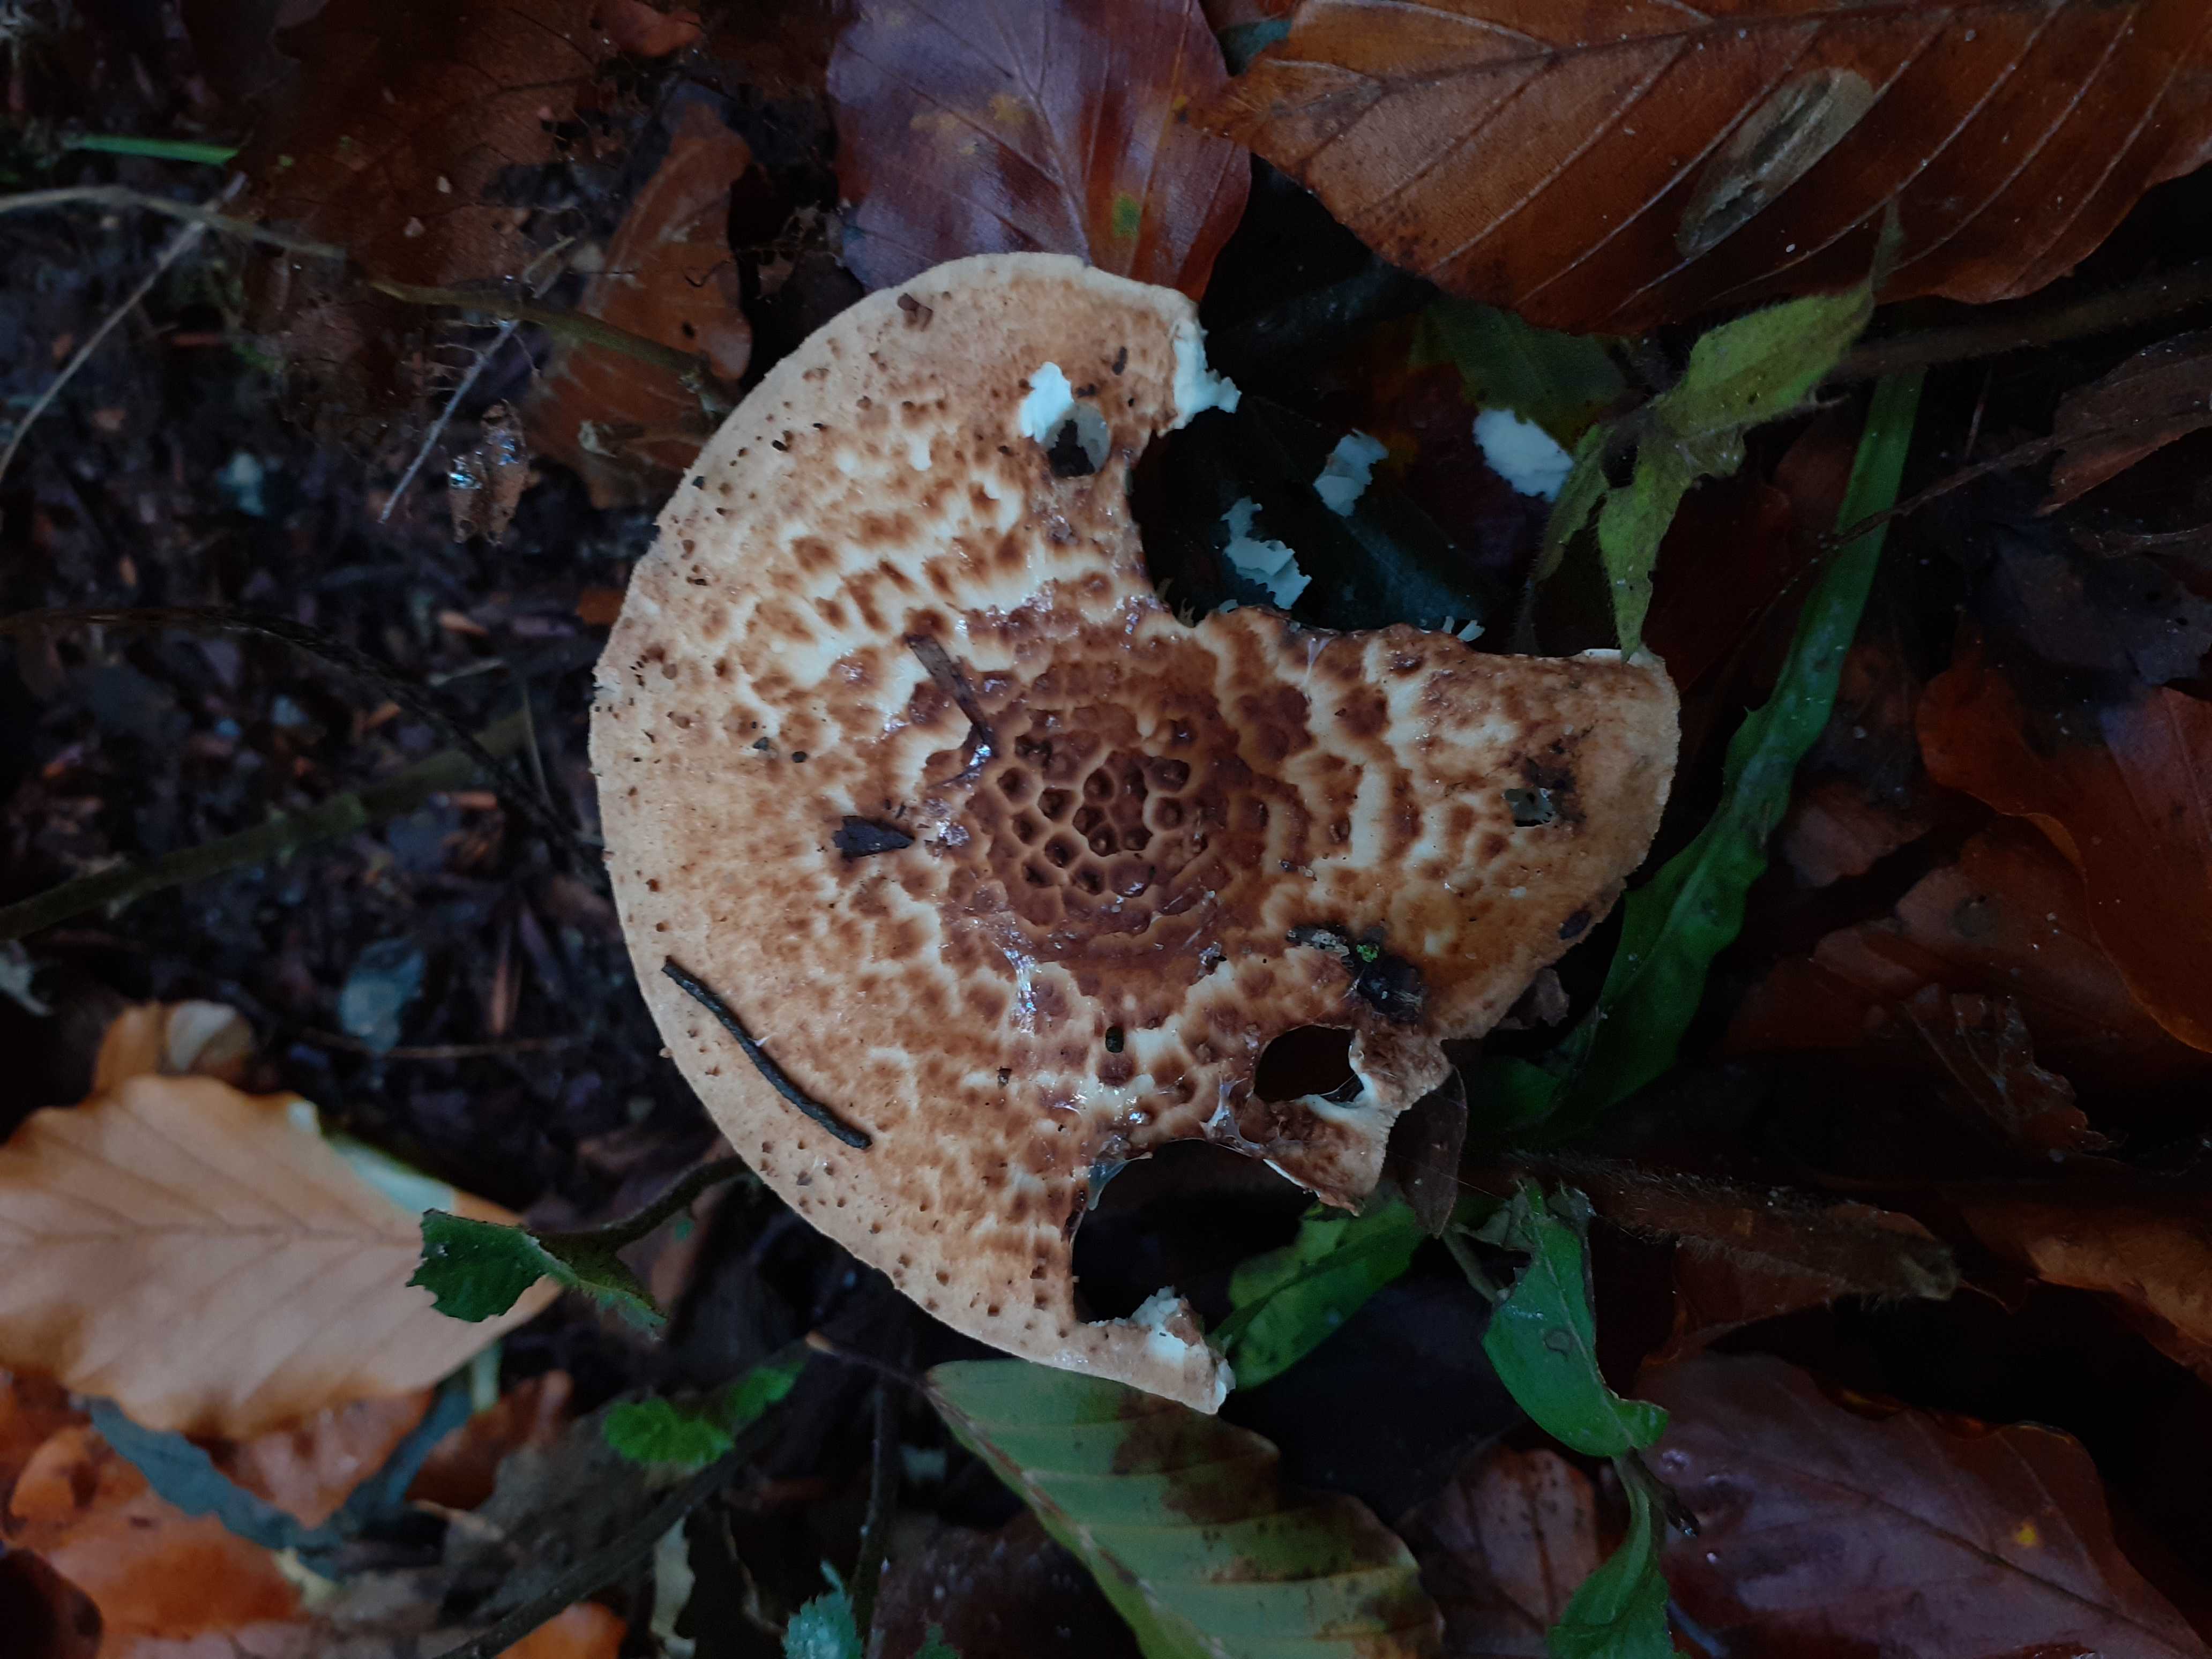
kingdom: Fungi
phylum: Basidiomycota
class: Agaricomycetes
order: Agaricales
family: Agaricaceae
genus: Echinoderma
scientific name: Echinoderma asperum
